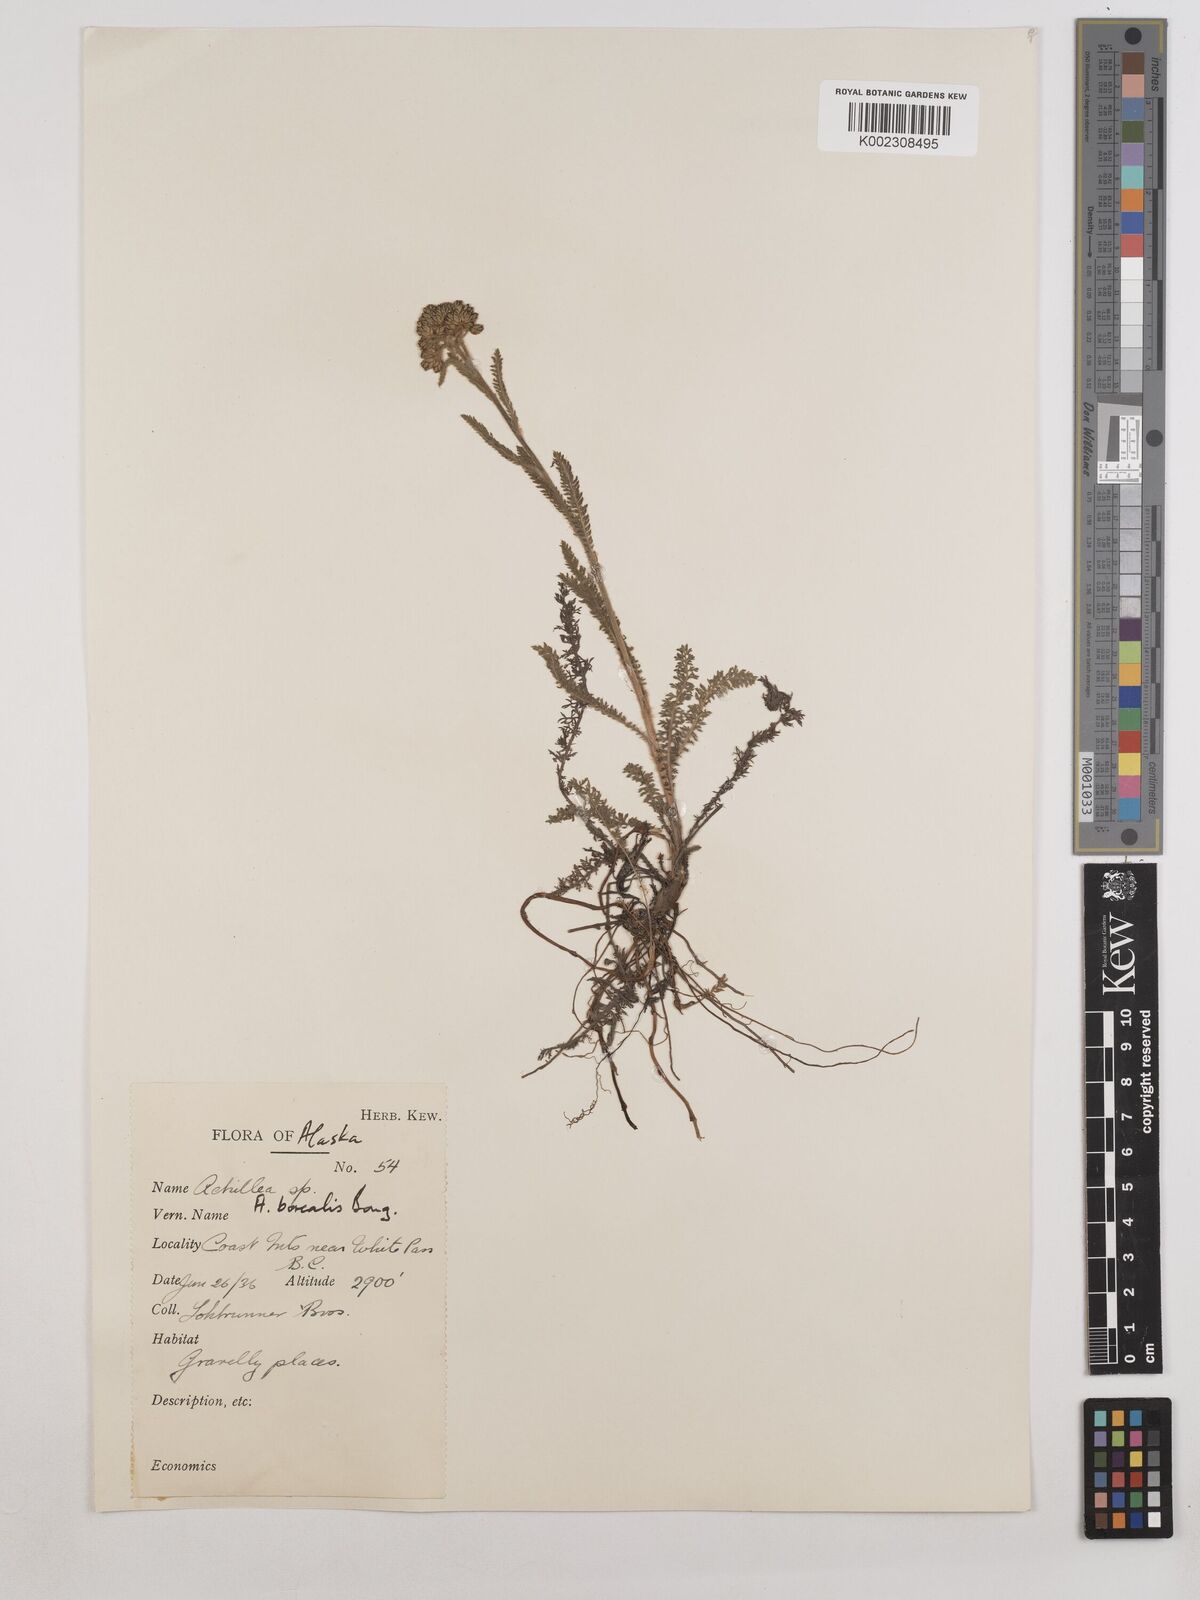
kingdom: Plantae
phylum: Tracheophyta
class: Magnoliopsida
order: Asterales
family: Asteraceae
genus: Achillea
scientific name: Achillea millefolium
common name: Yarrow
